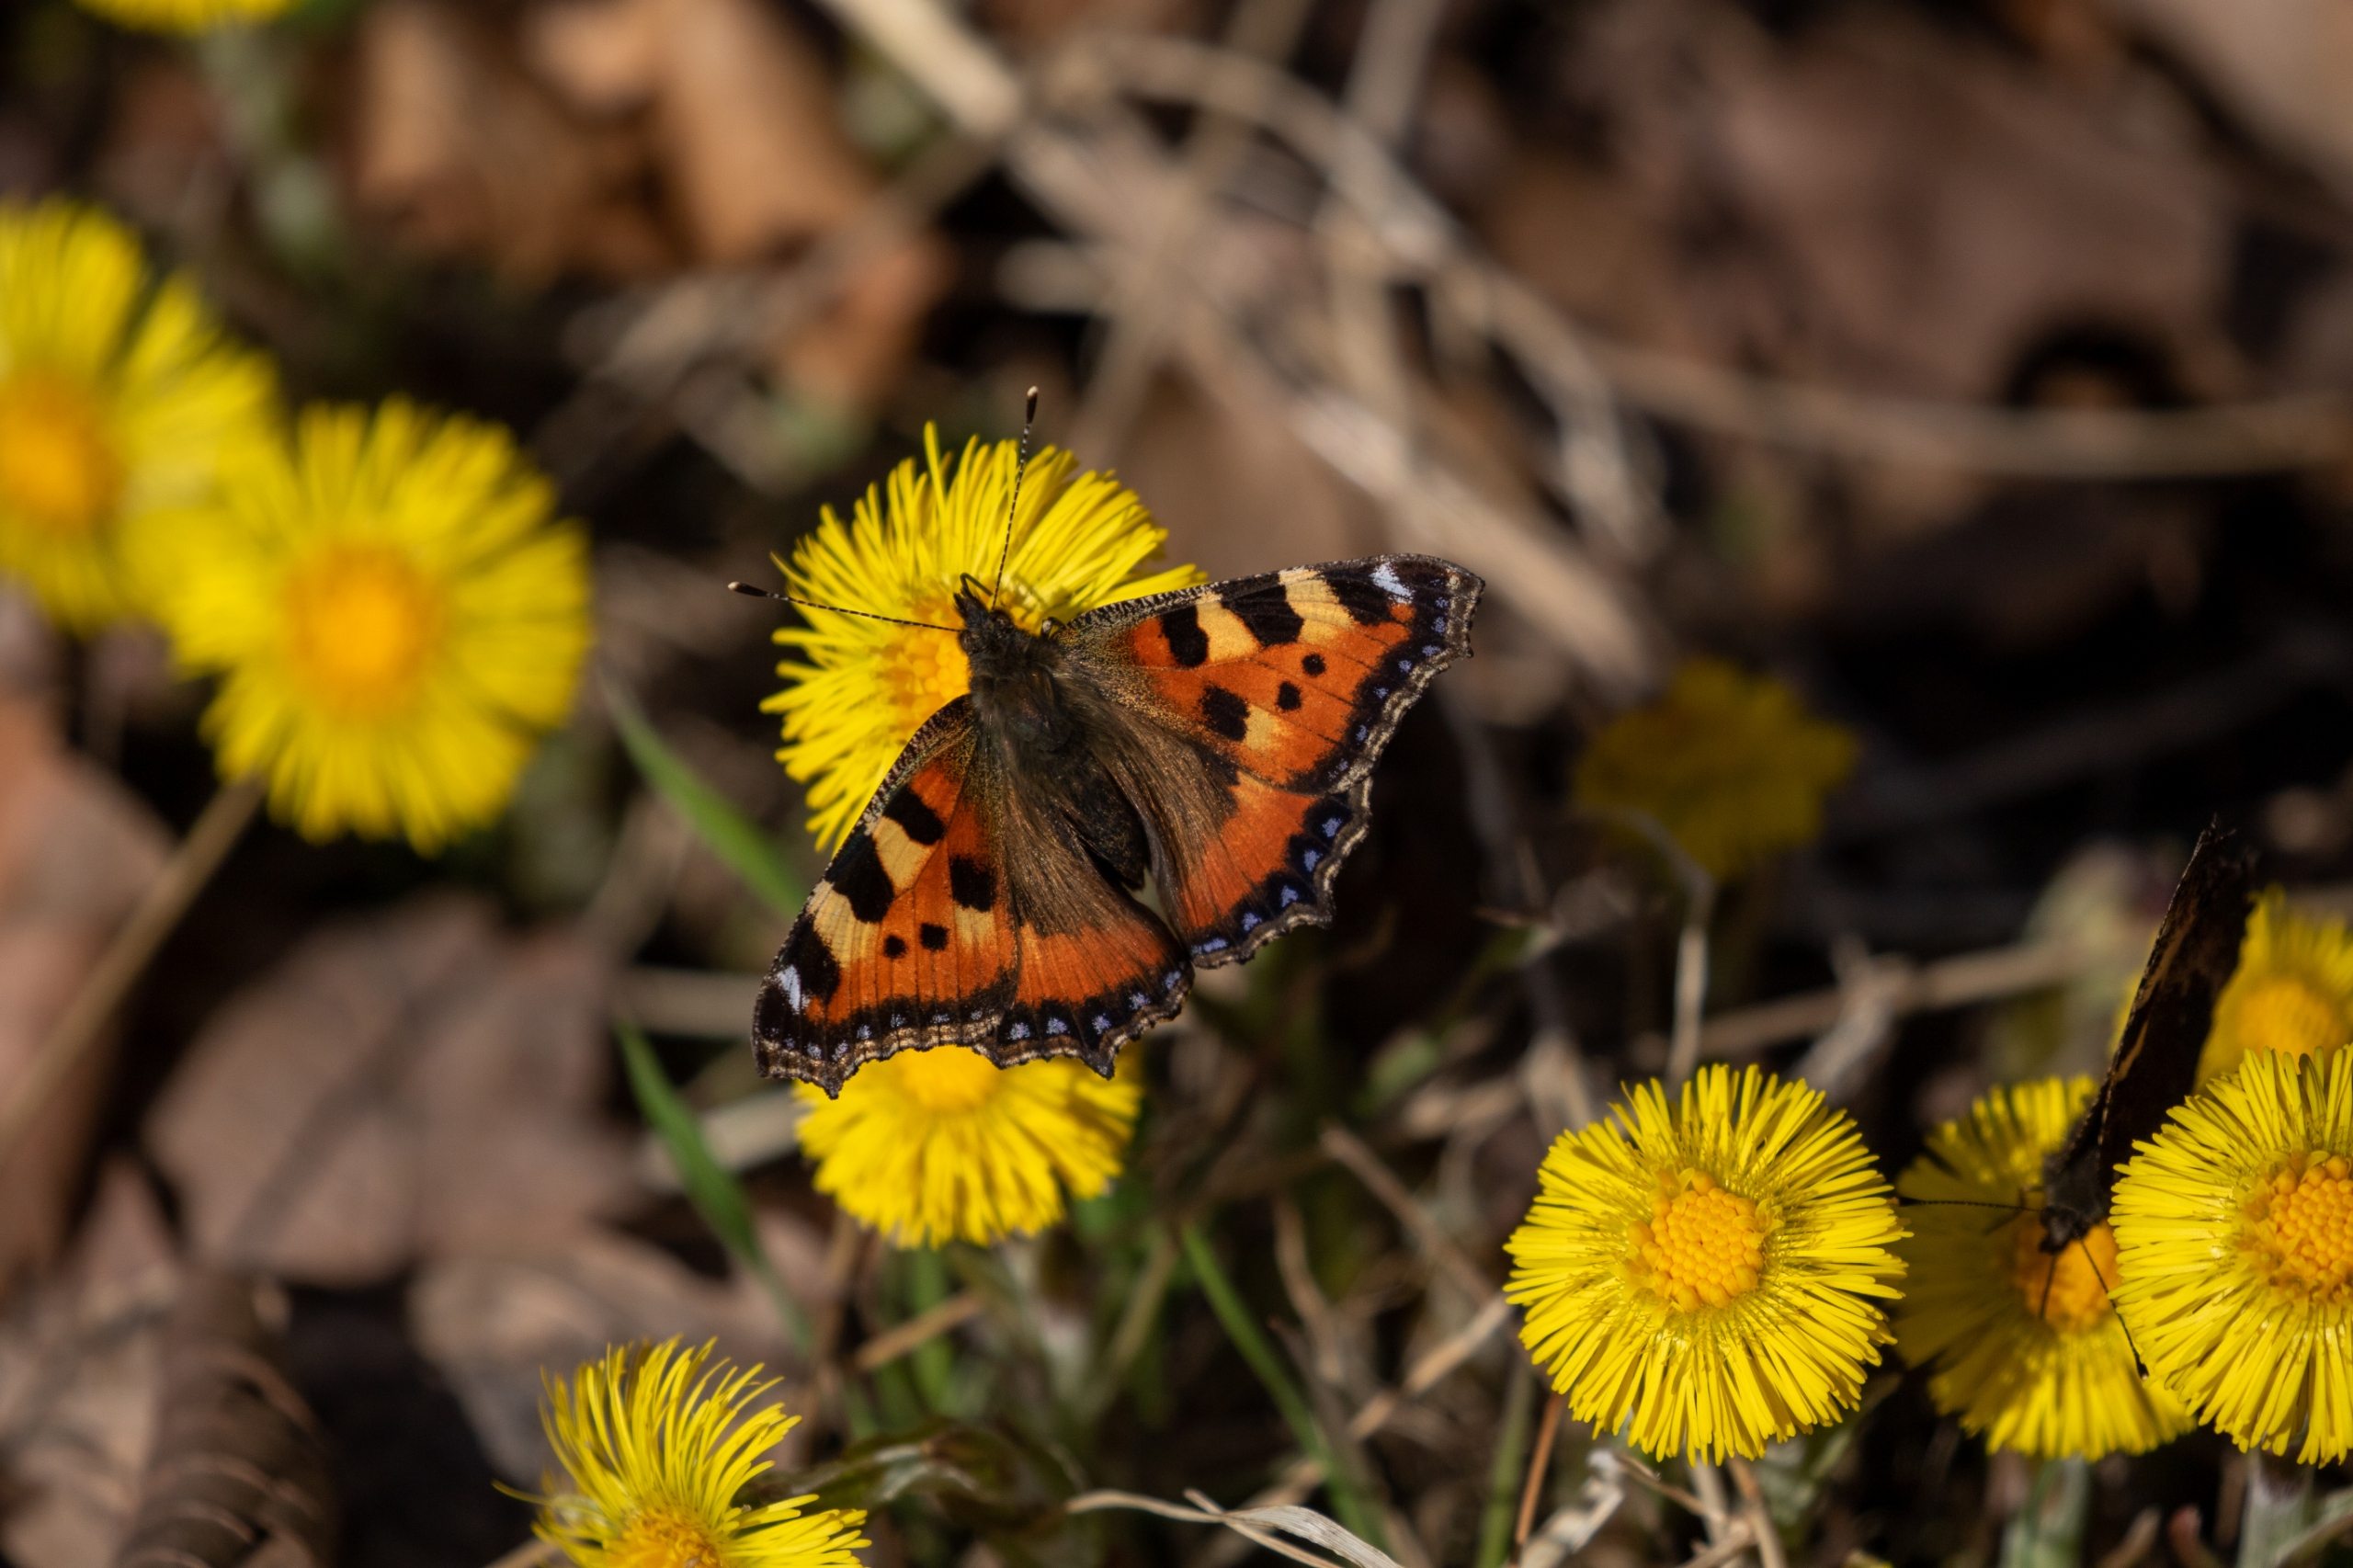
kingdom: Plantae
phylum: Tracheophyta
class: Magnoliopsida
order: Asterales
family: Asteraceae
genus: Tussilago
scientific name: Tussilago farfara
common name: Følfod
